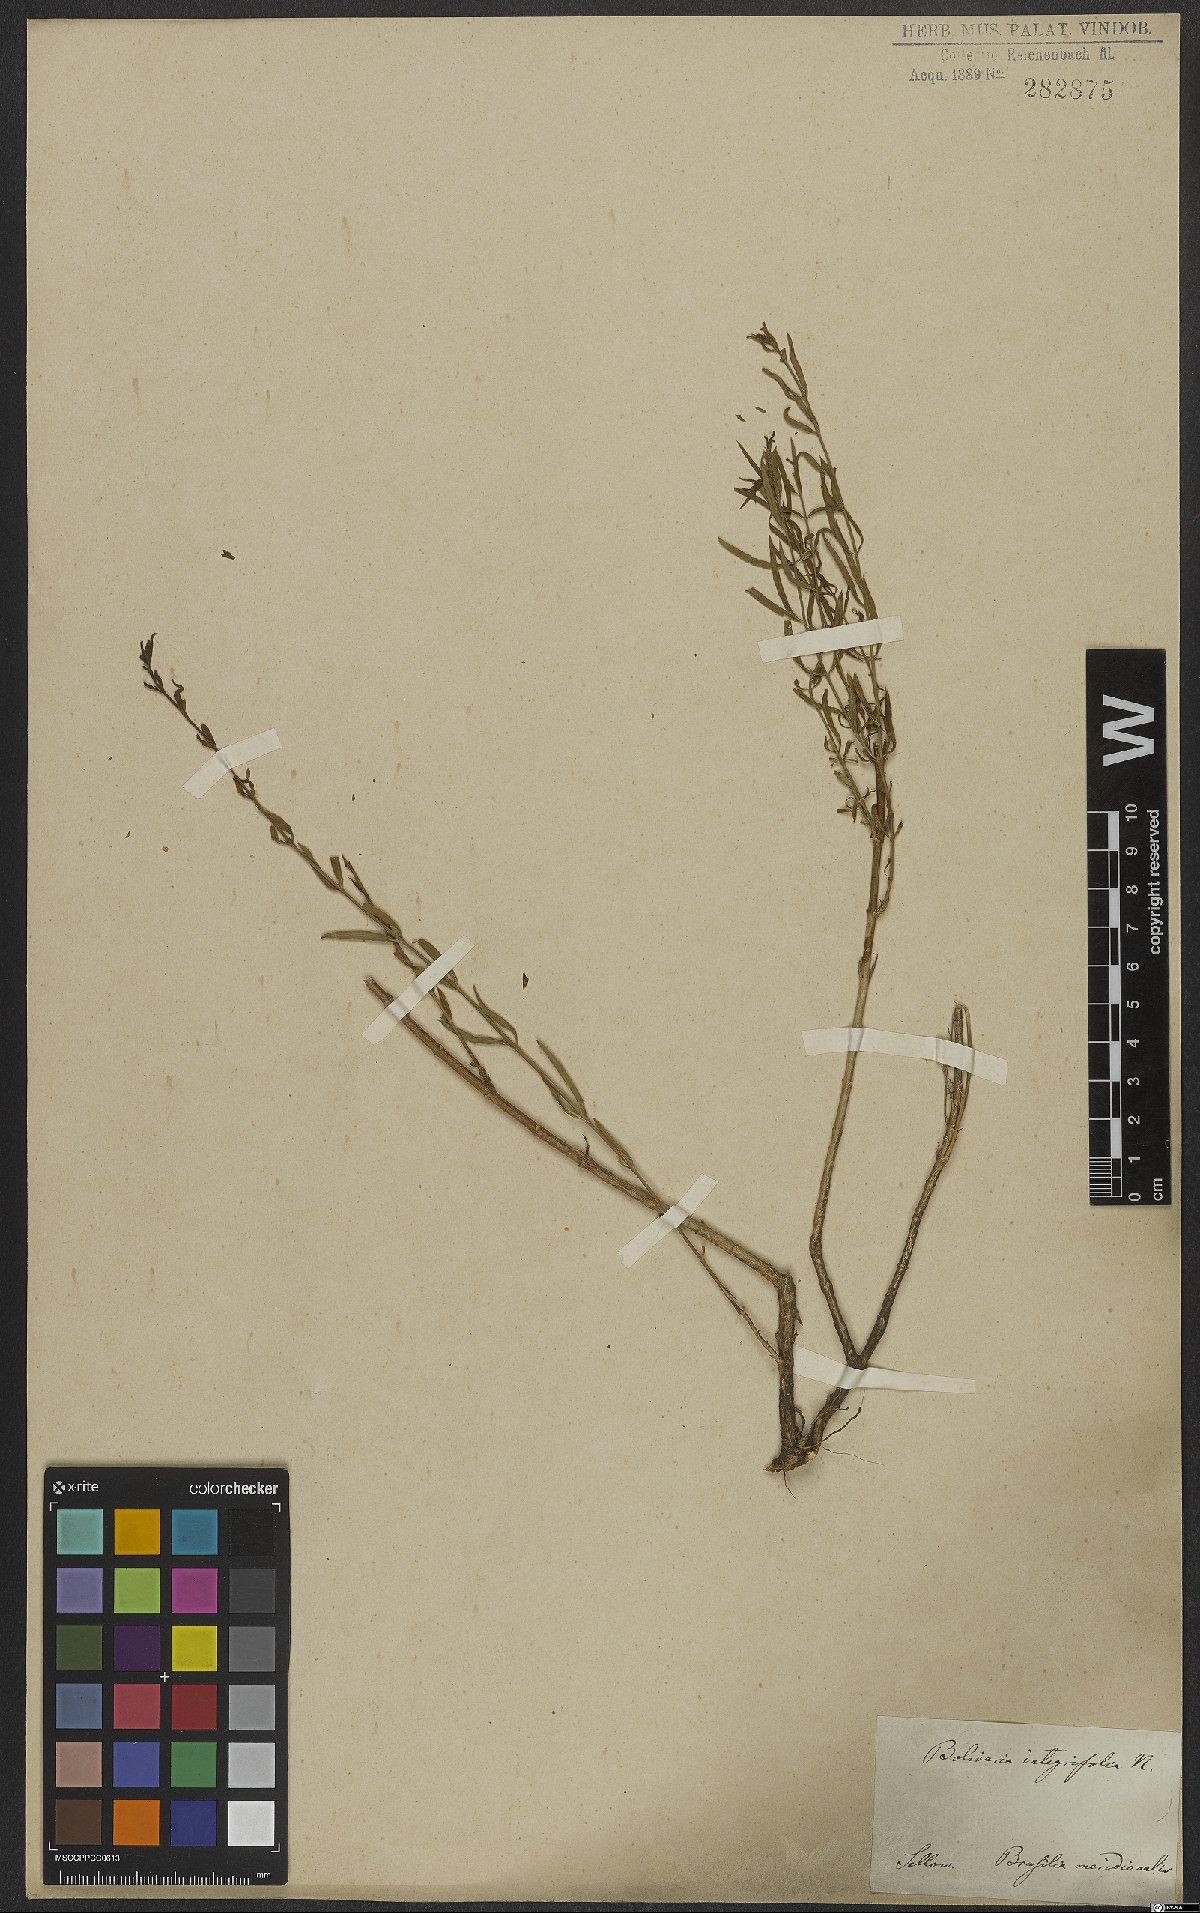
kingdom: Plantae
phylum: Tracheophyta
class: Magnoliopsida
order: Lamiales
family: Oleaceae
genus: Menodora
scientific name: Menodora integrifolia
